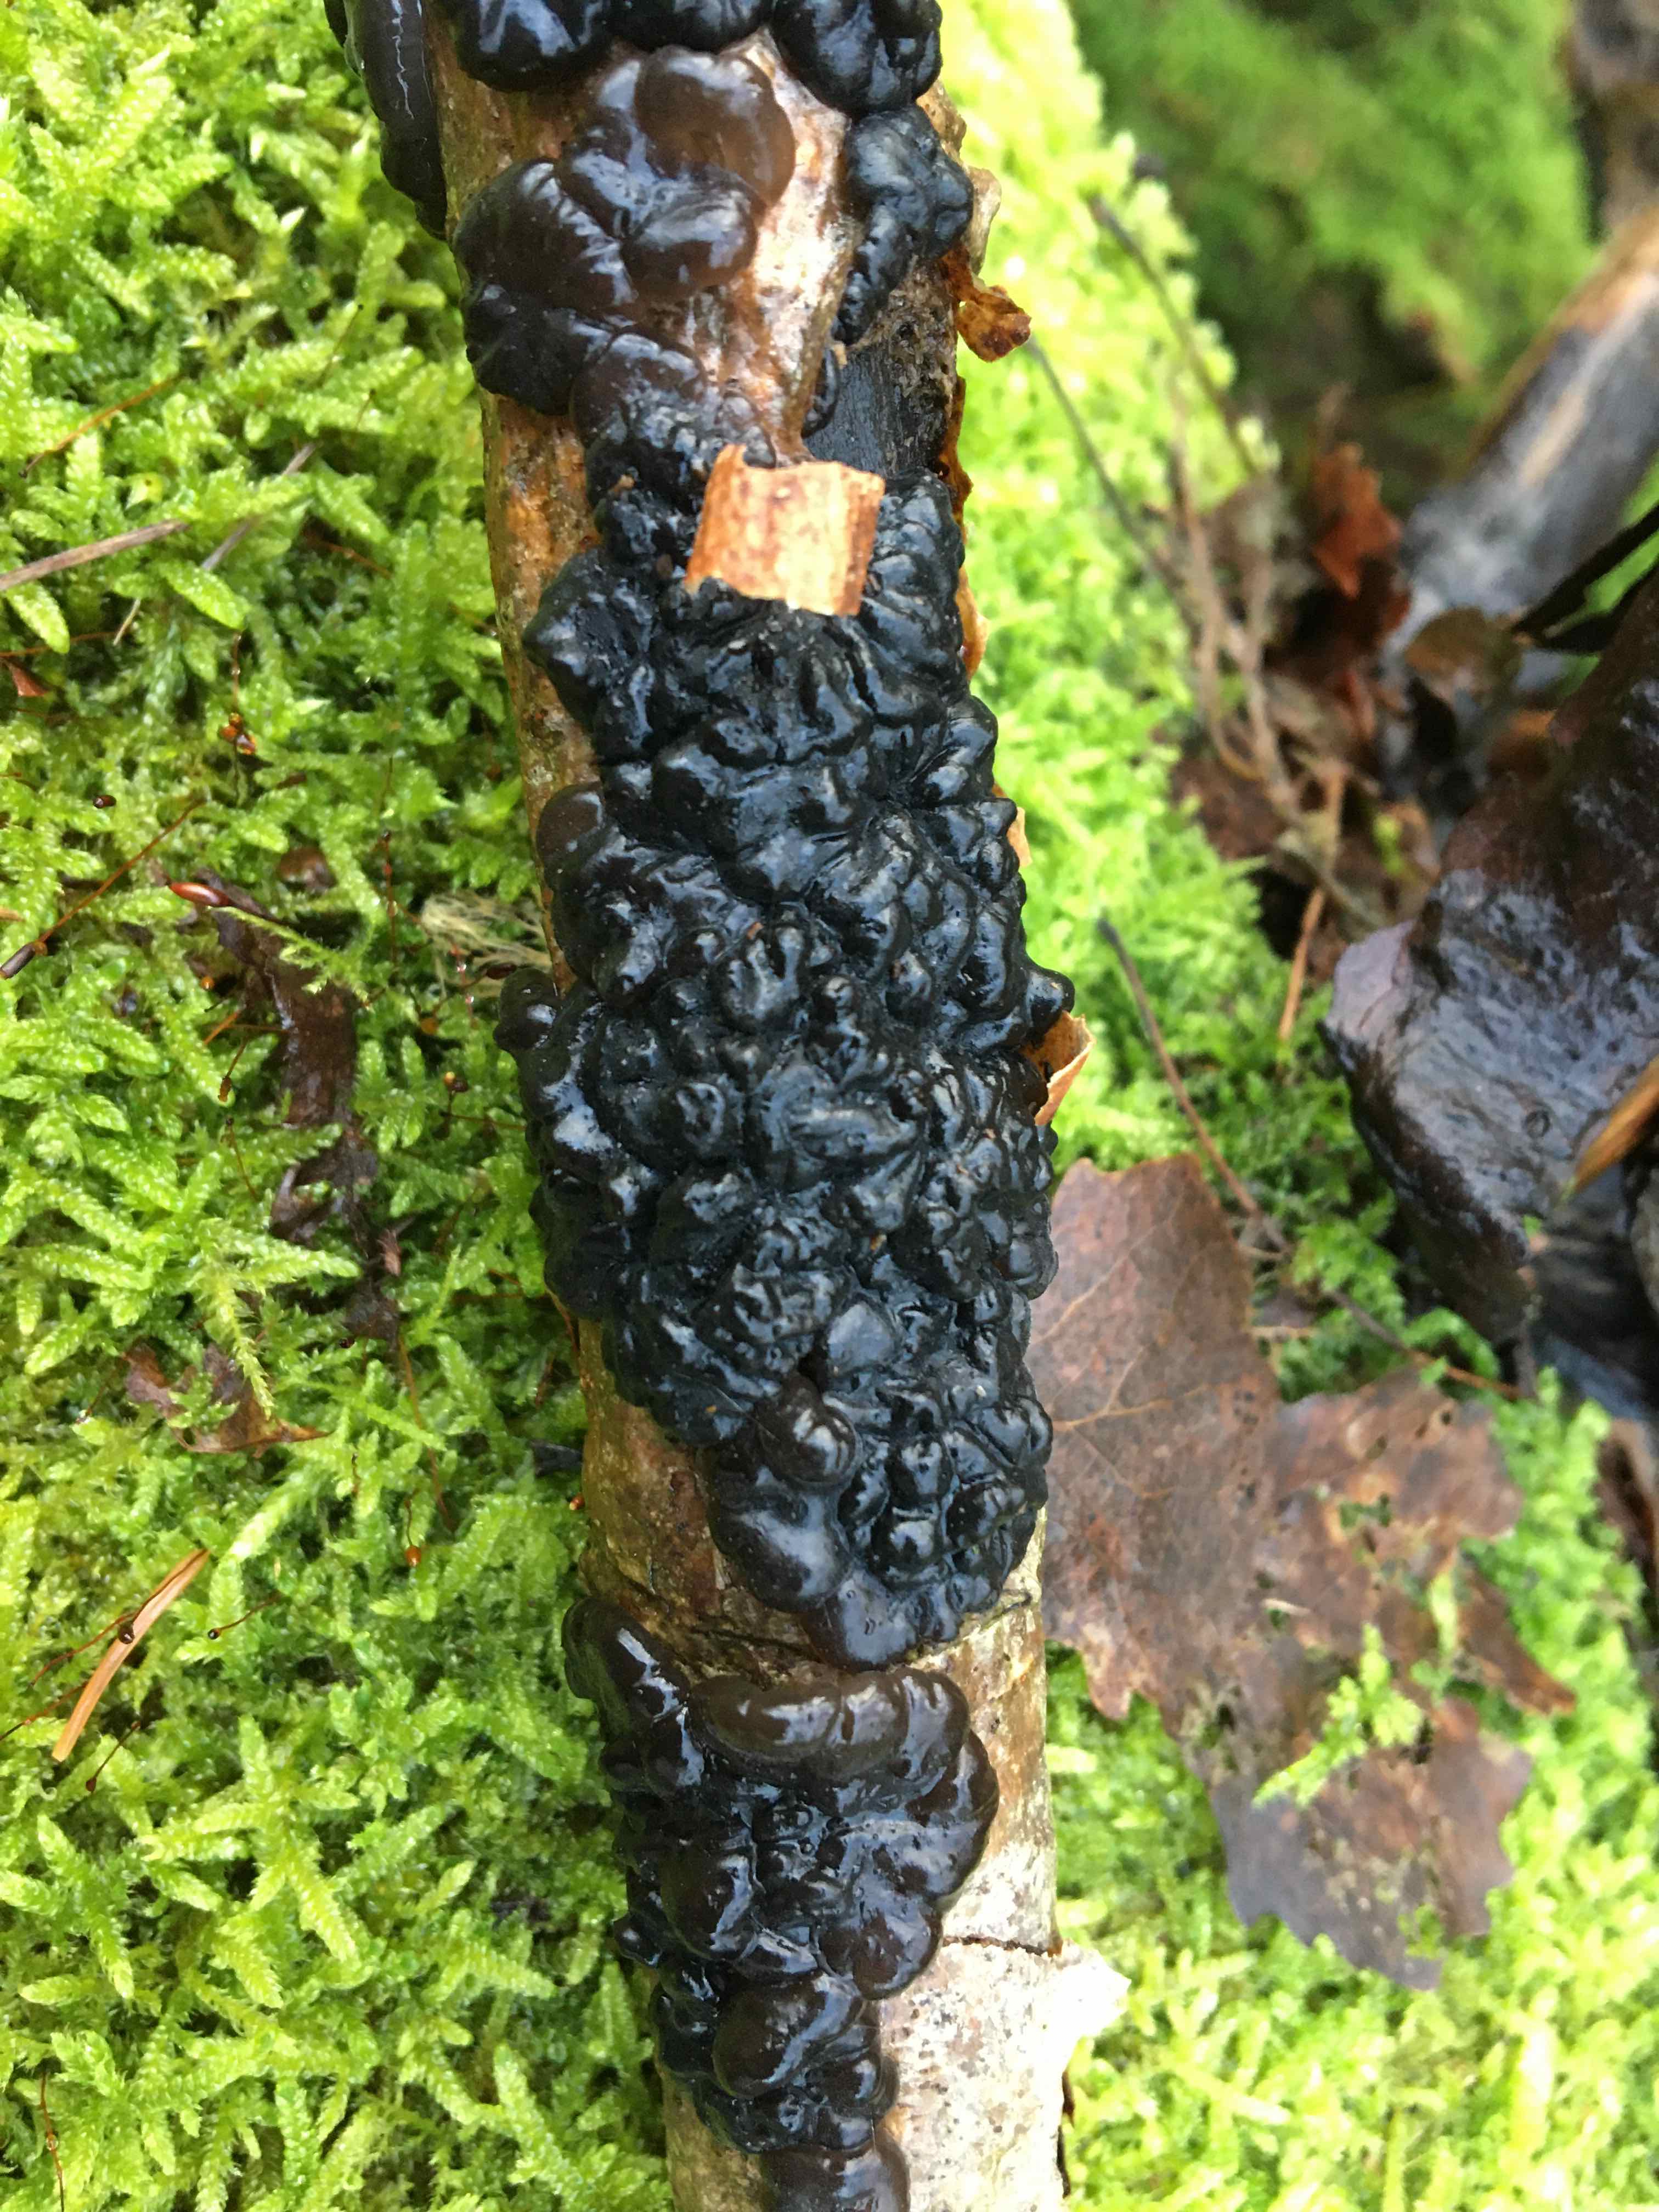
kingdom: Fungi
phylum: Basidiomycota
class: Agaricomycetes
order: Auriculariales
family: Auriculariaceae
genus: Exidia
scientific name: Exidia nigricans
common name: almindelig bævretop
